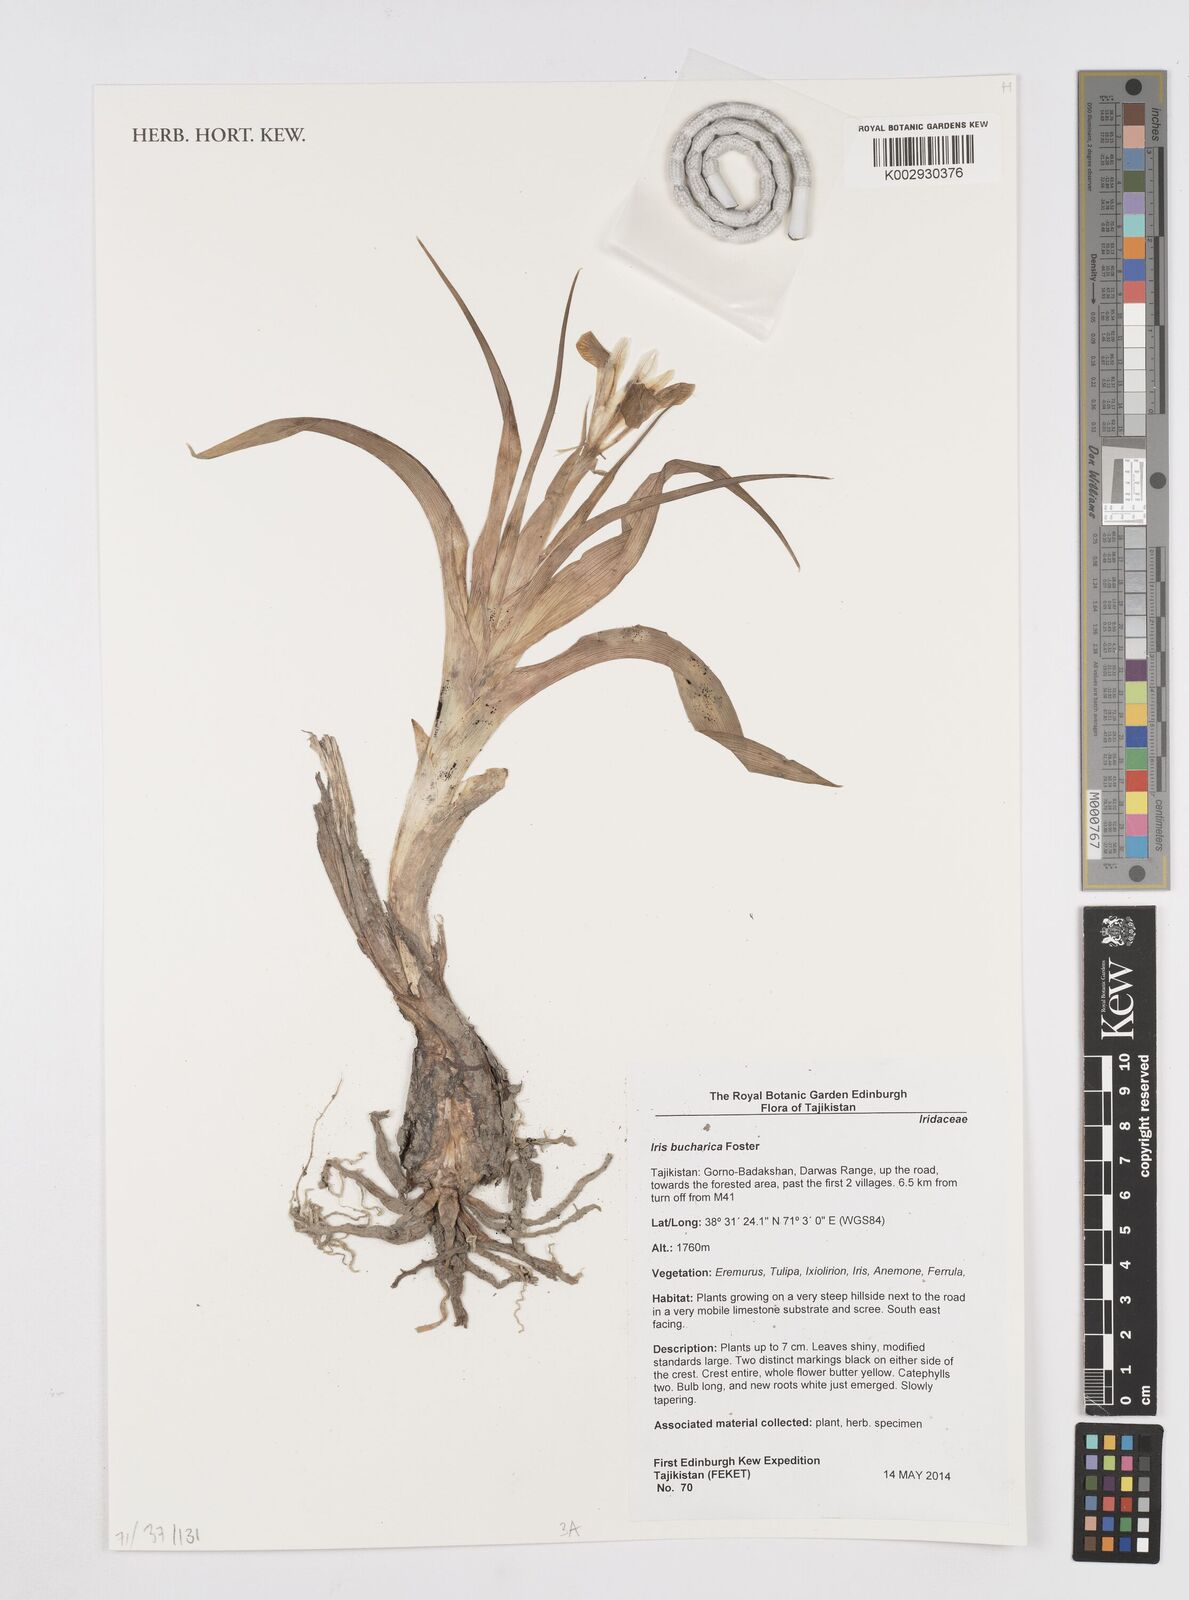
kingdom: Plantae
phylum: Tracheophyta
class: Liliopsida
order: Asparagales
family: Iridaceae
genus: Iris
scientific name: Iris bucharica
